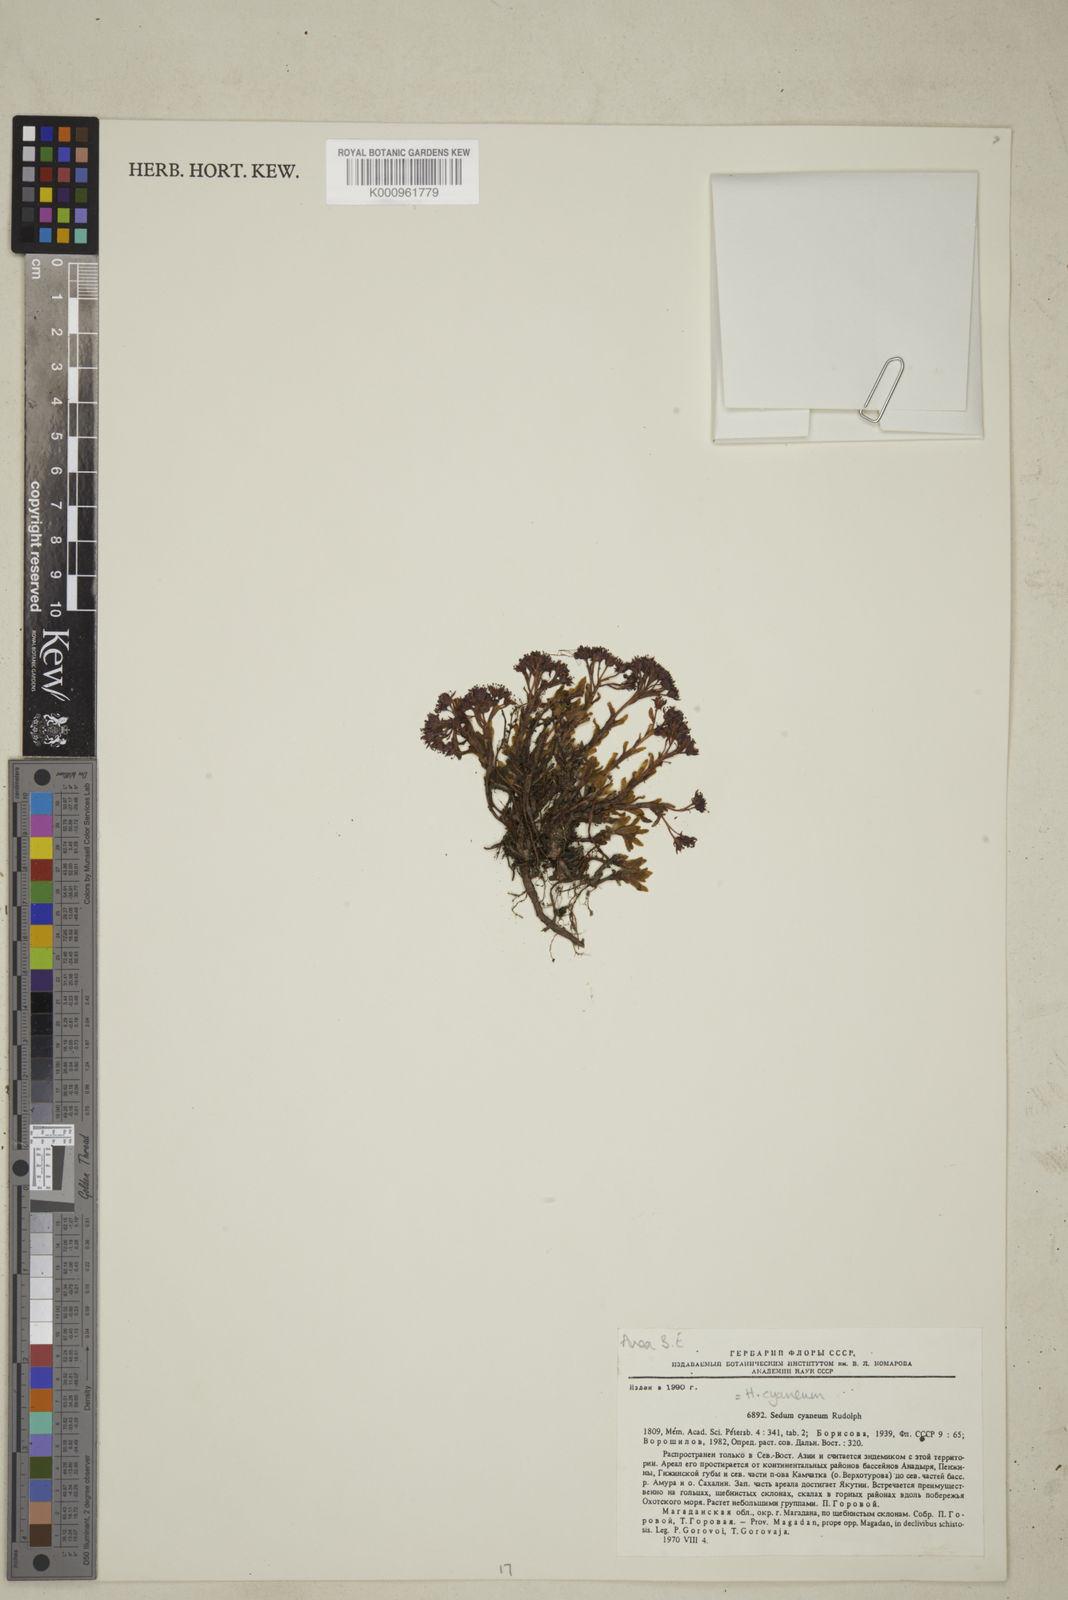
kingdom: Plantae
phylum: Tracheophyta
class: Magnoliopsida
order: Saxifragales
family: Crassulaceae
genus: Hylotelephium
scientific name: Hylotelephium cyaneum
